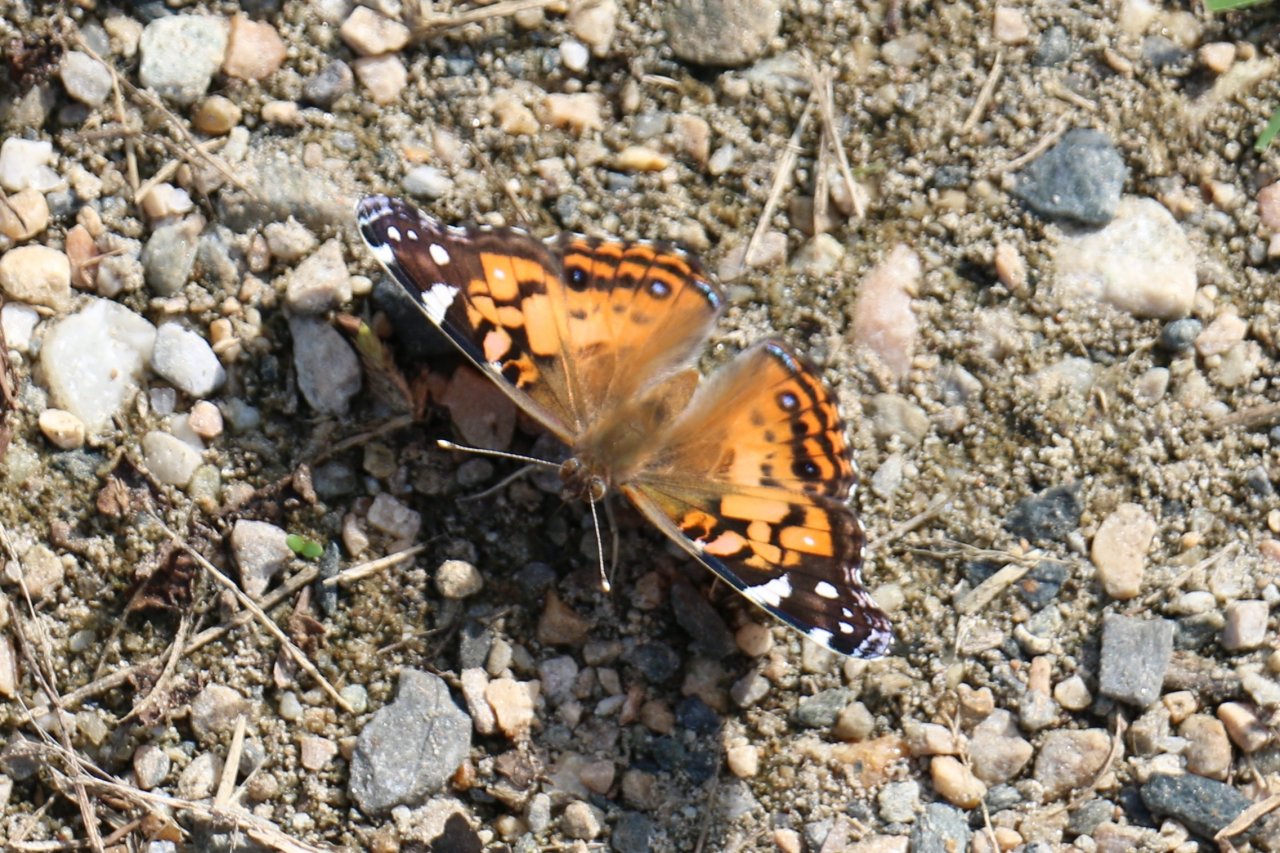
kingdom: Animalia
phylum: Arthropoda
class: Insecta
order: Lepidoptera
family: Nymphalidae
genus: Vanessa
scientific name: Vanessa virginiensis
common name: American Lady
